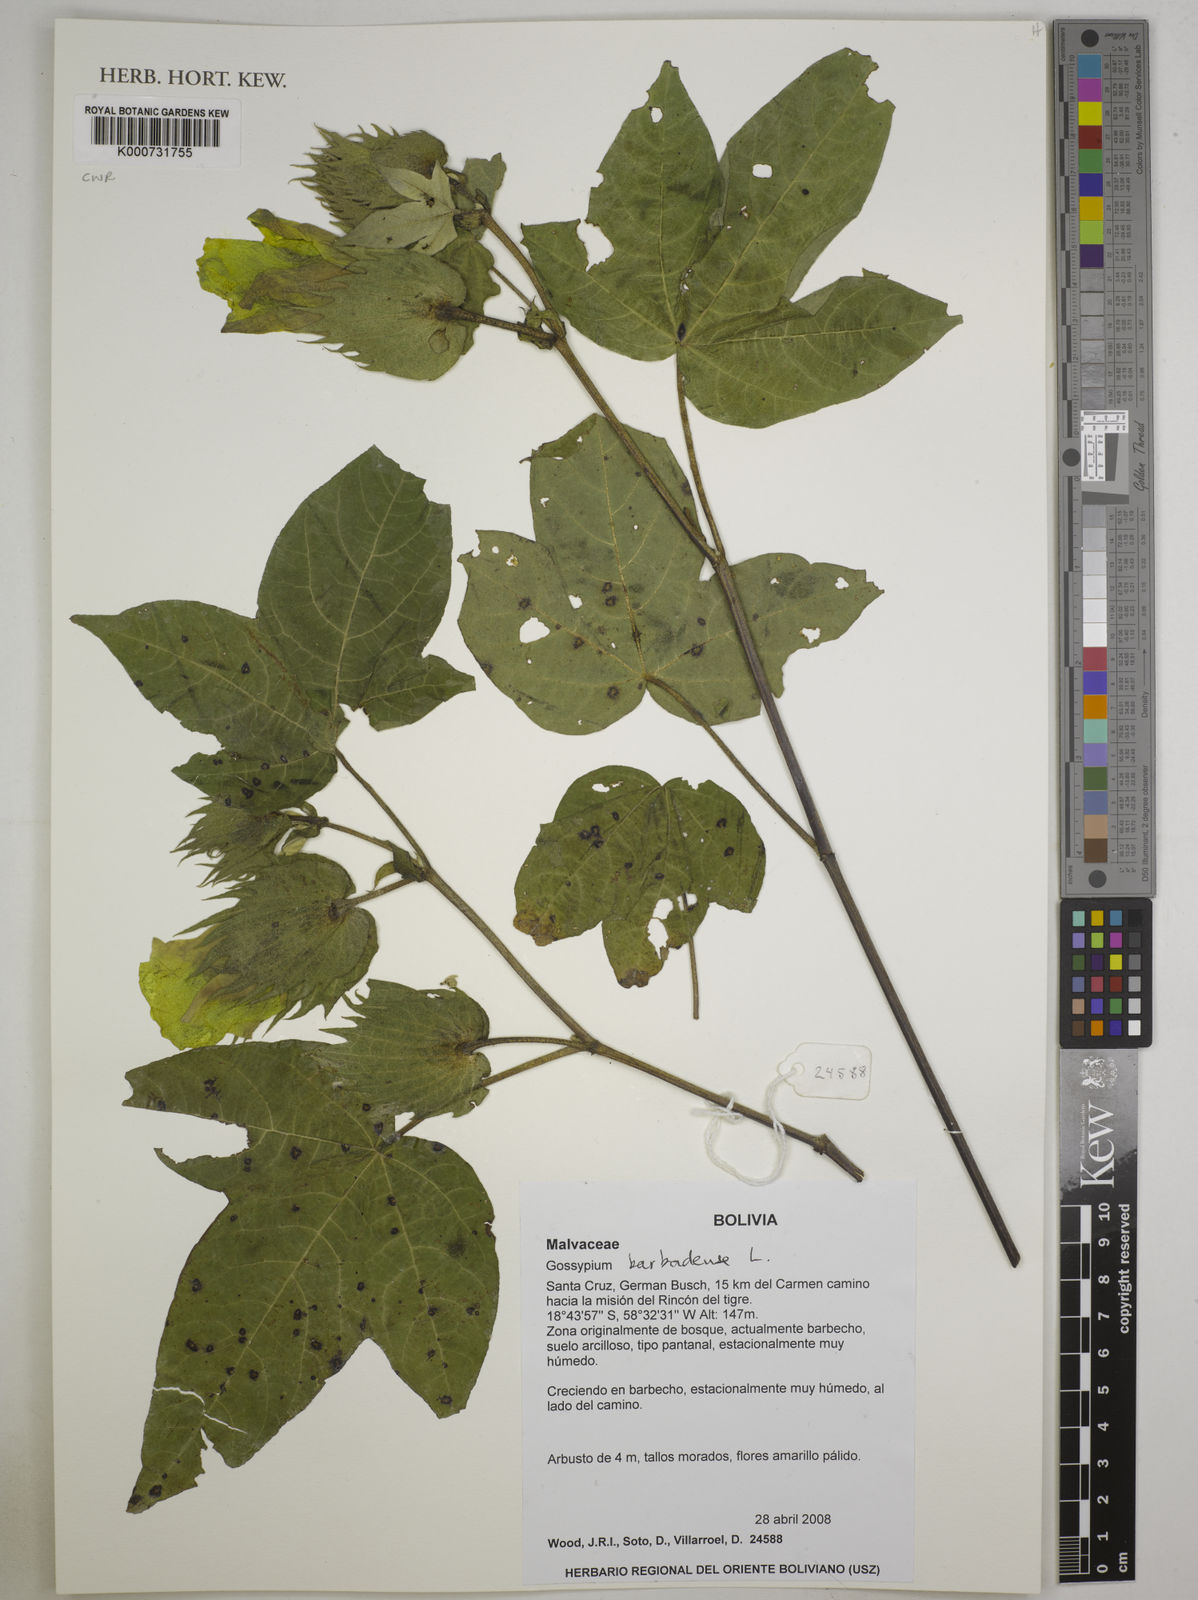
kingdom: Plantae
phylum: Tracheophyta
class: Magnoliopsida
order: Malvales
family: Malvaceae
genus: Gossypium
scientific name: Gossypium barbadense
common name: Creole cotton
